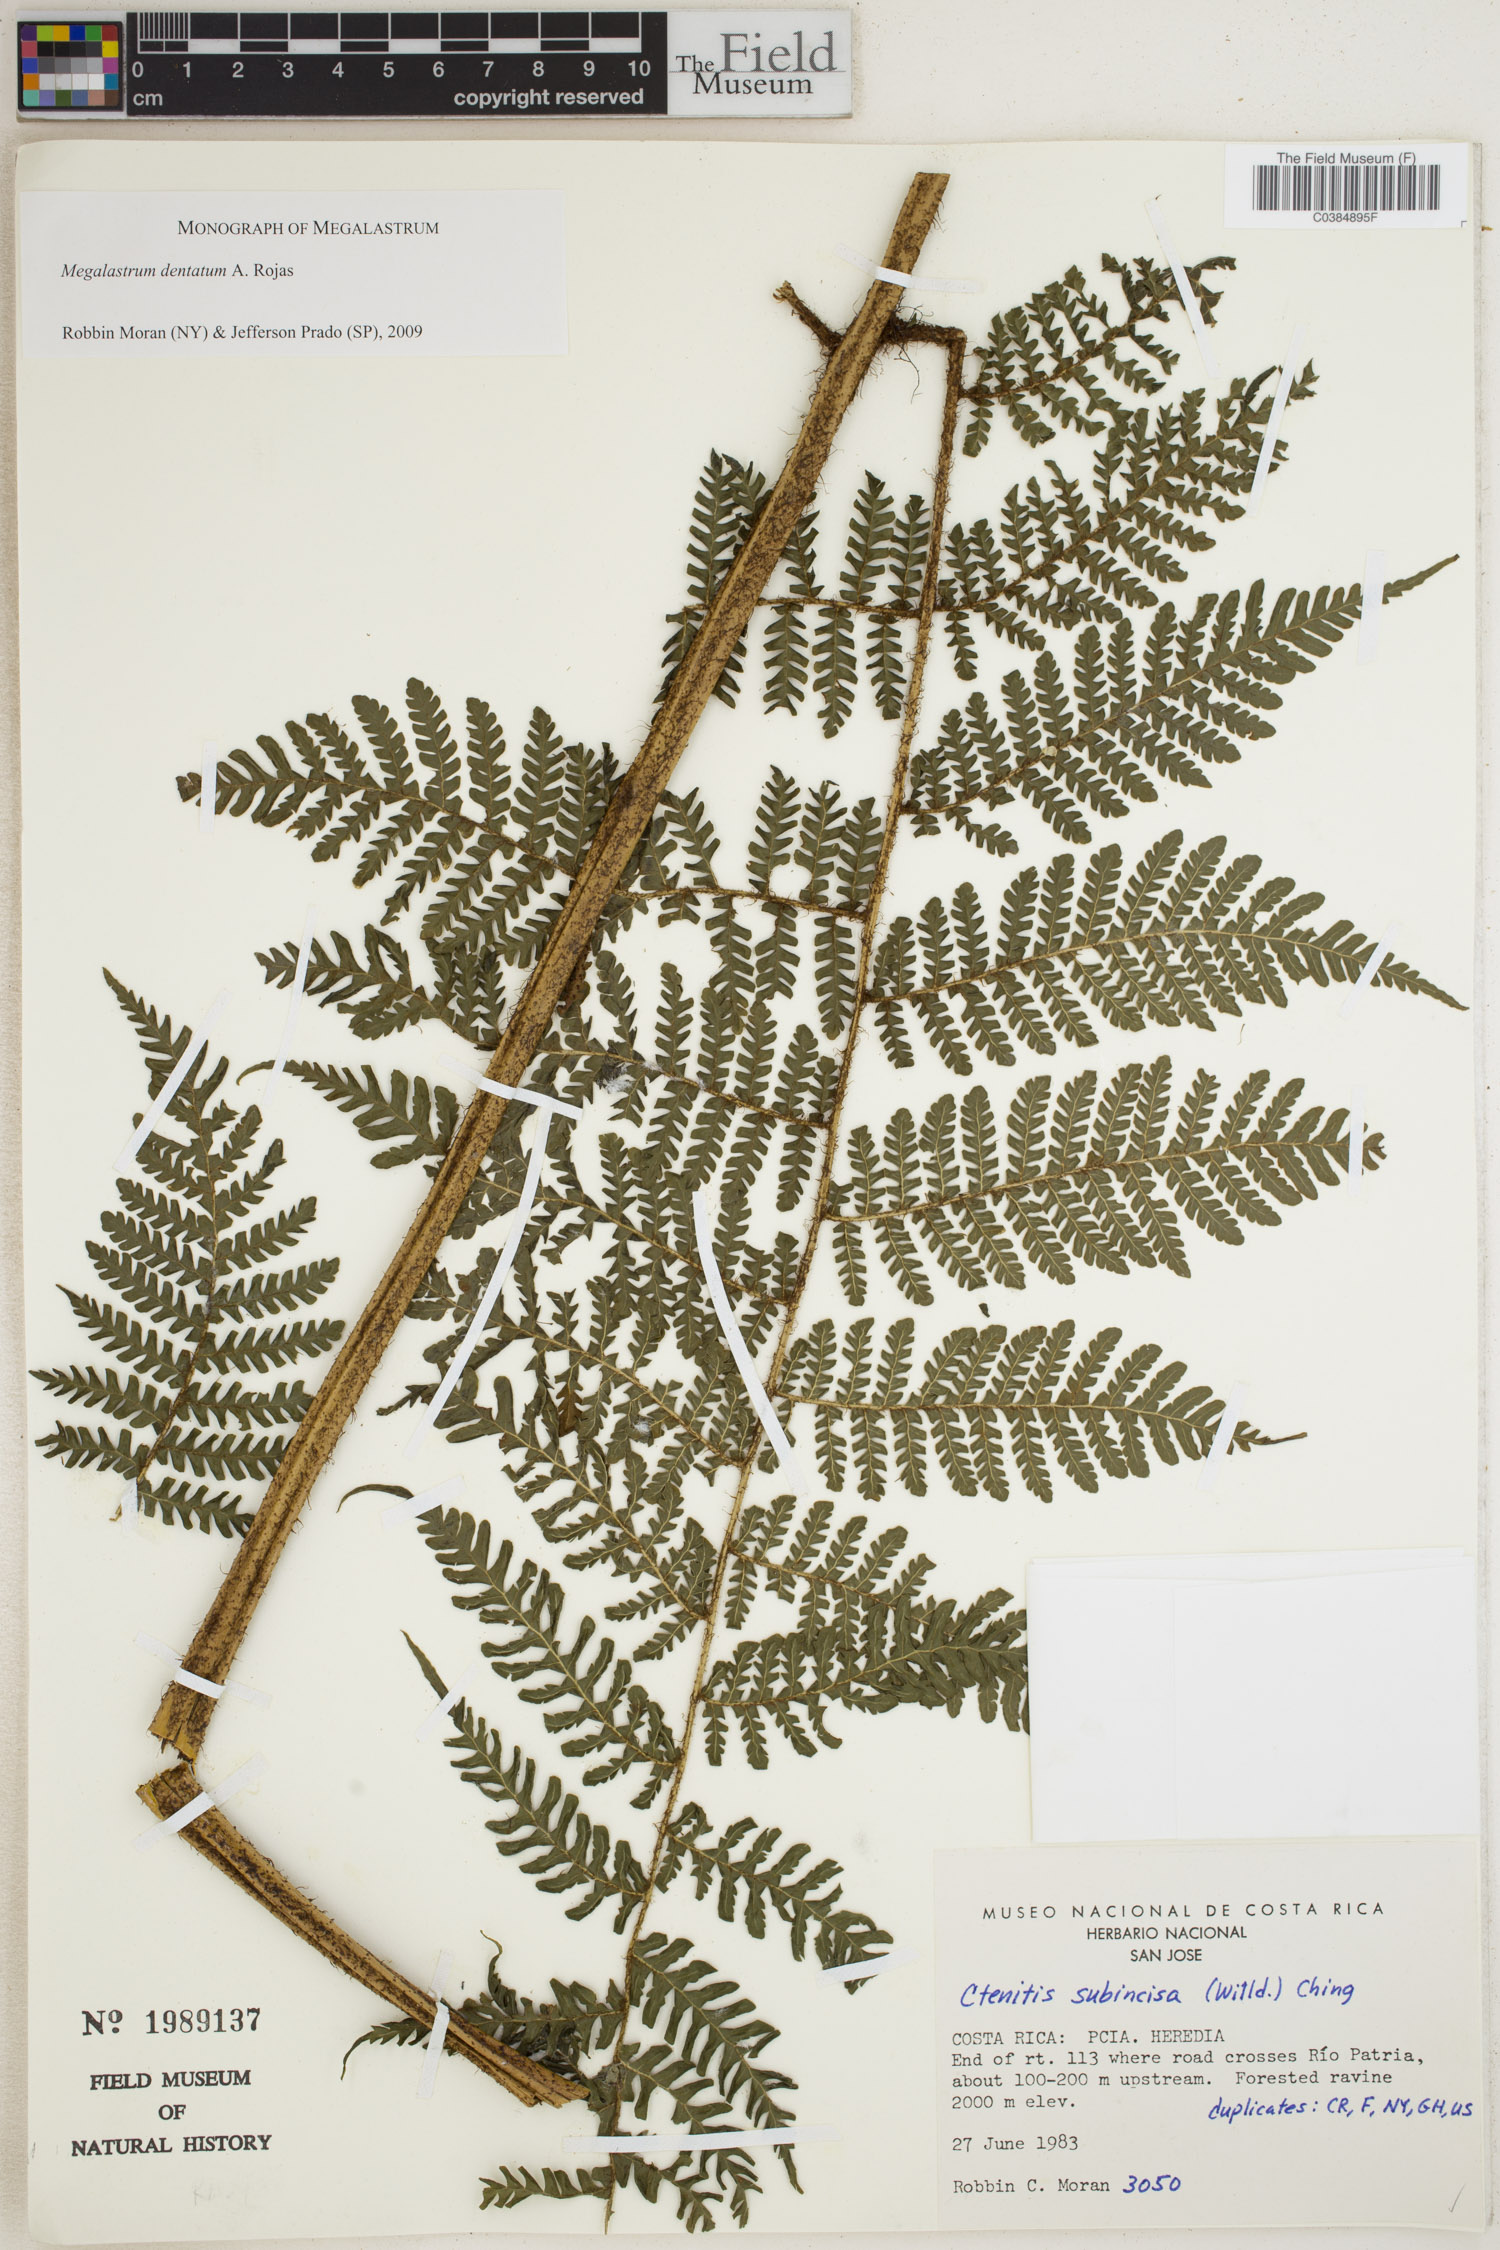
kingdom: Plantae
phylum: Tracheophyta
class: Polypodiopsida
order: Polypodiales
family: Dryopteridaceae
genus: Megalastrum
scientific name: Megalastrum dentatum
